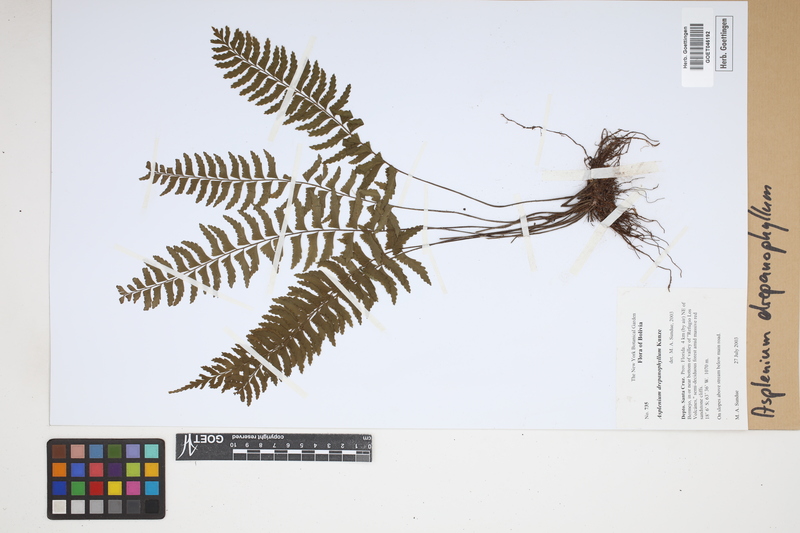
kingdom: Plantae
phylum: Tracheophyta
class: Polypodiopsida
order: Polypodiales
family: Aspleniaceae
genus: Asplenium
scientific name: Asplenium drepanophyllum
